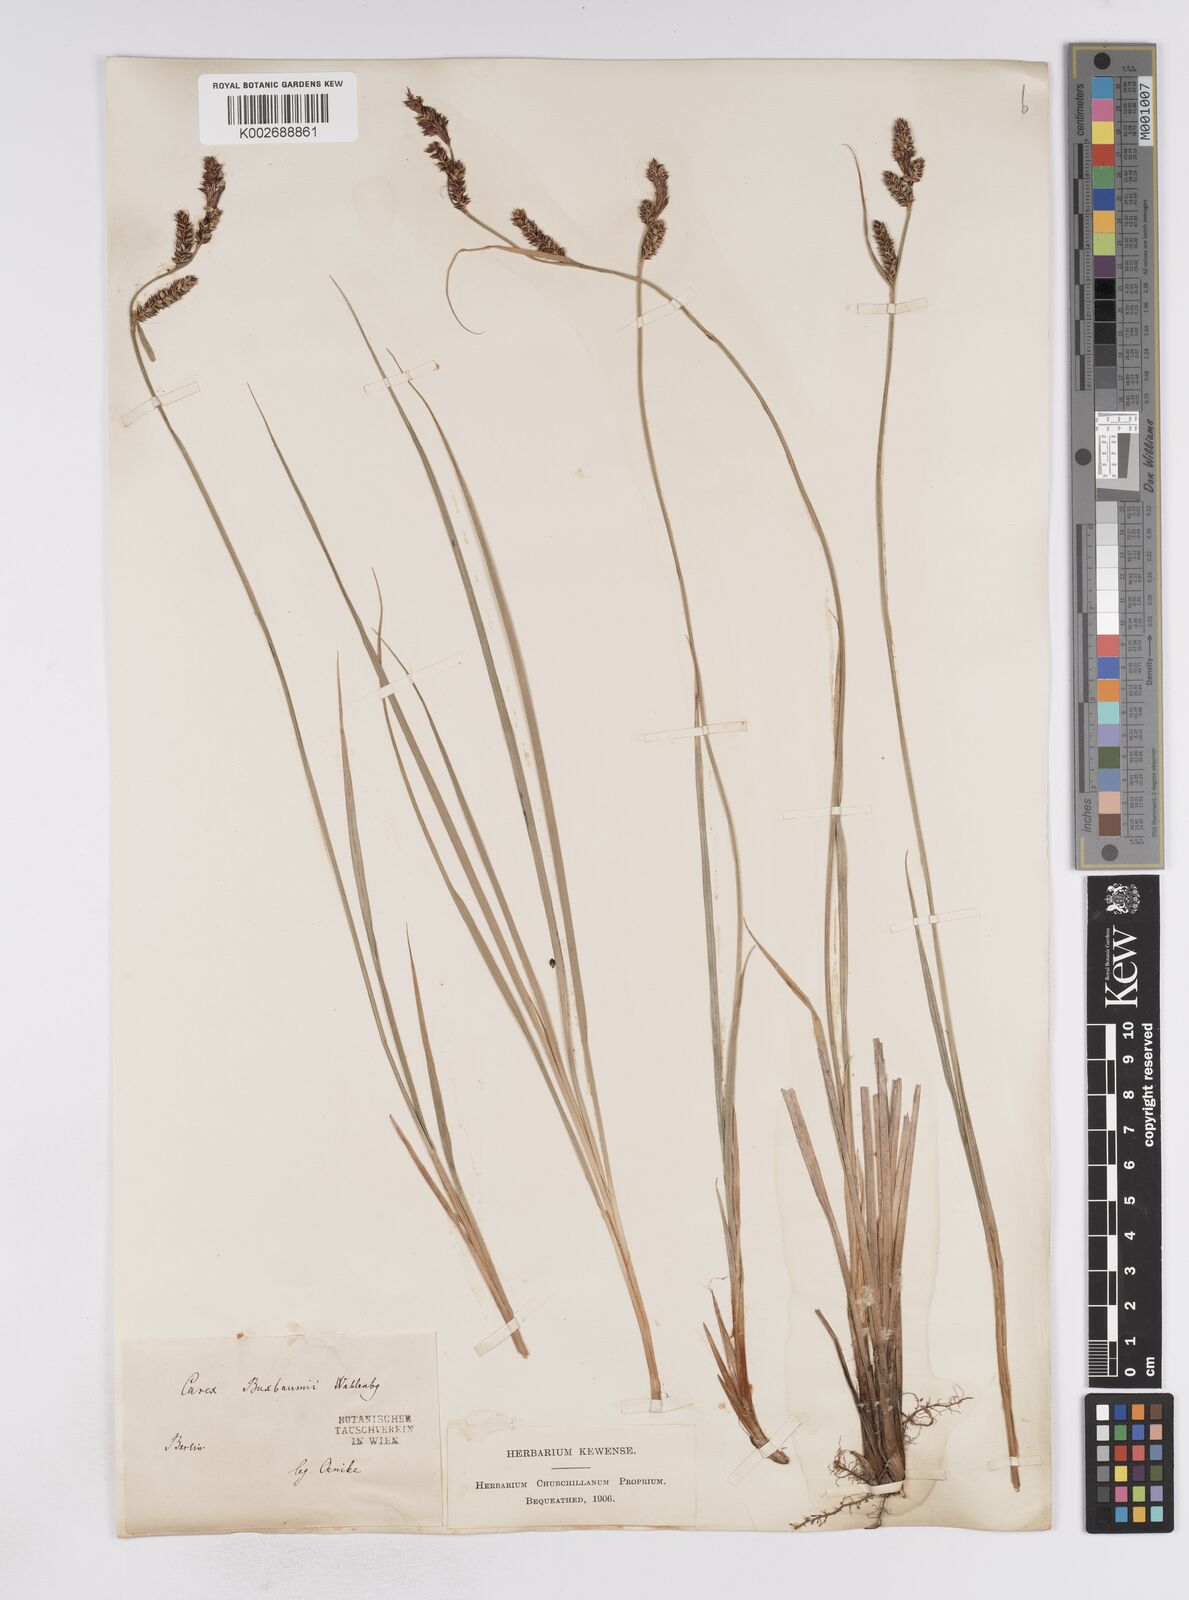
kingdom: Plantae
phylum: Tracheophyta
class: Liliopsida
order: Poales
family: Cyperaceae
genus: Carex
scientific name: Carex buxbaumii
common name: Club sedge
